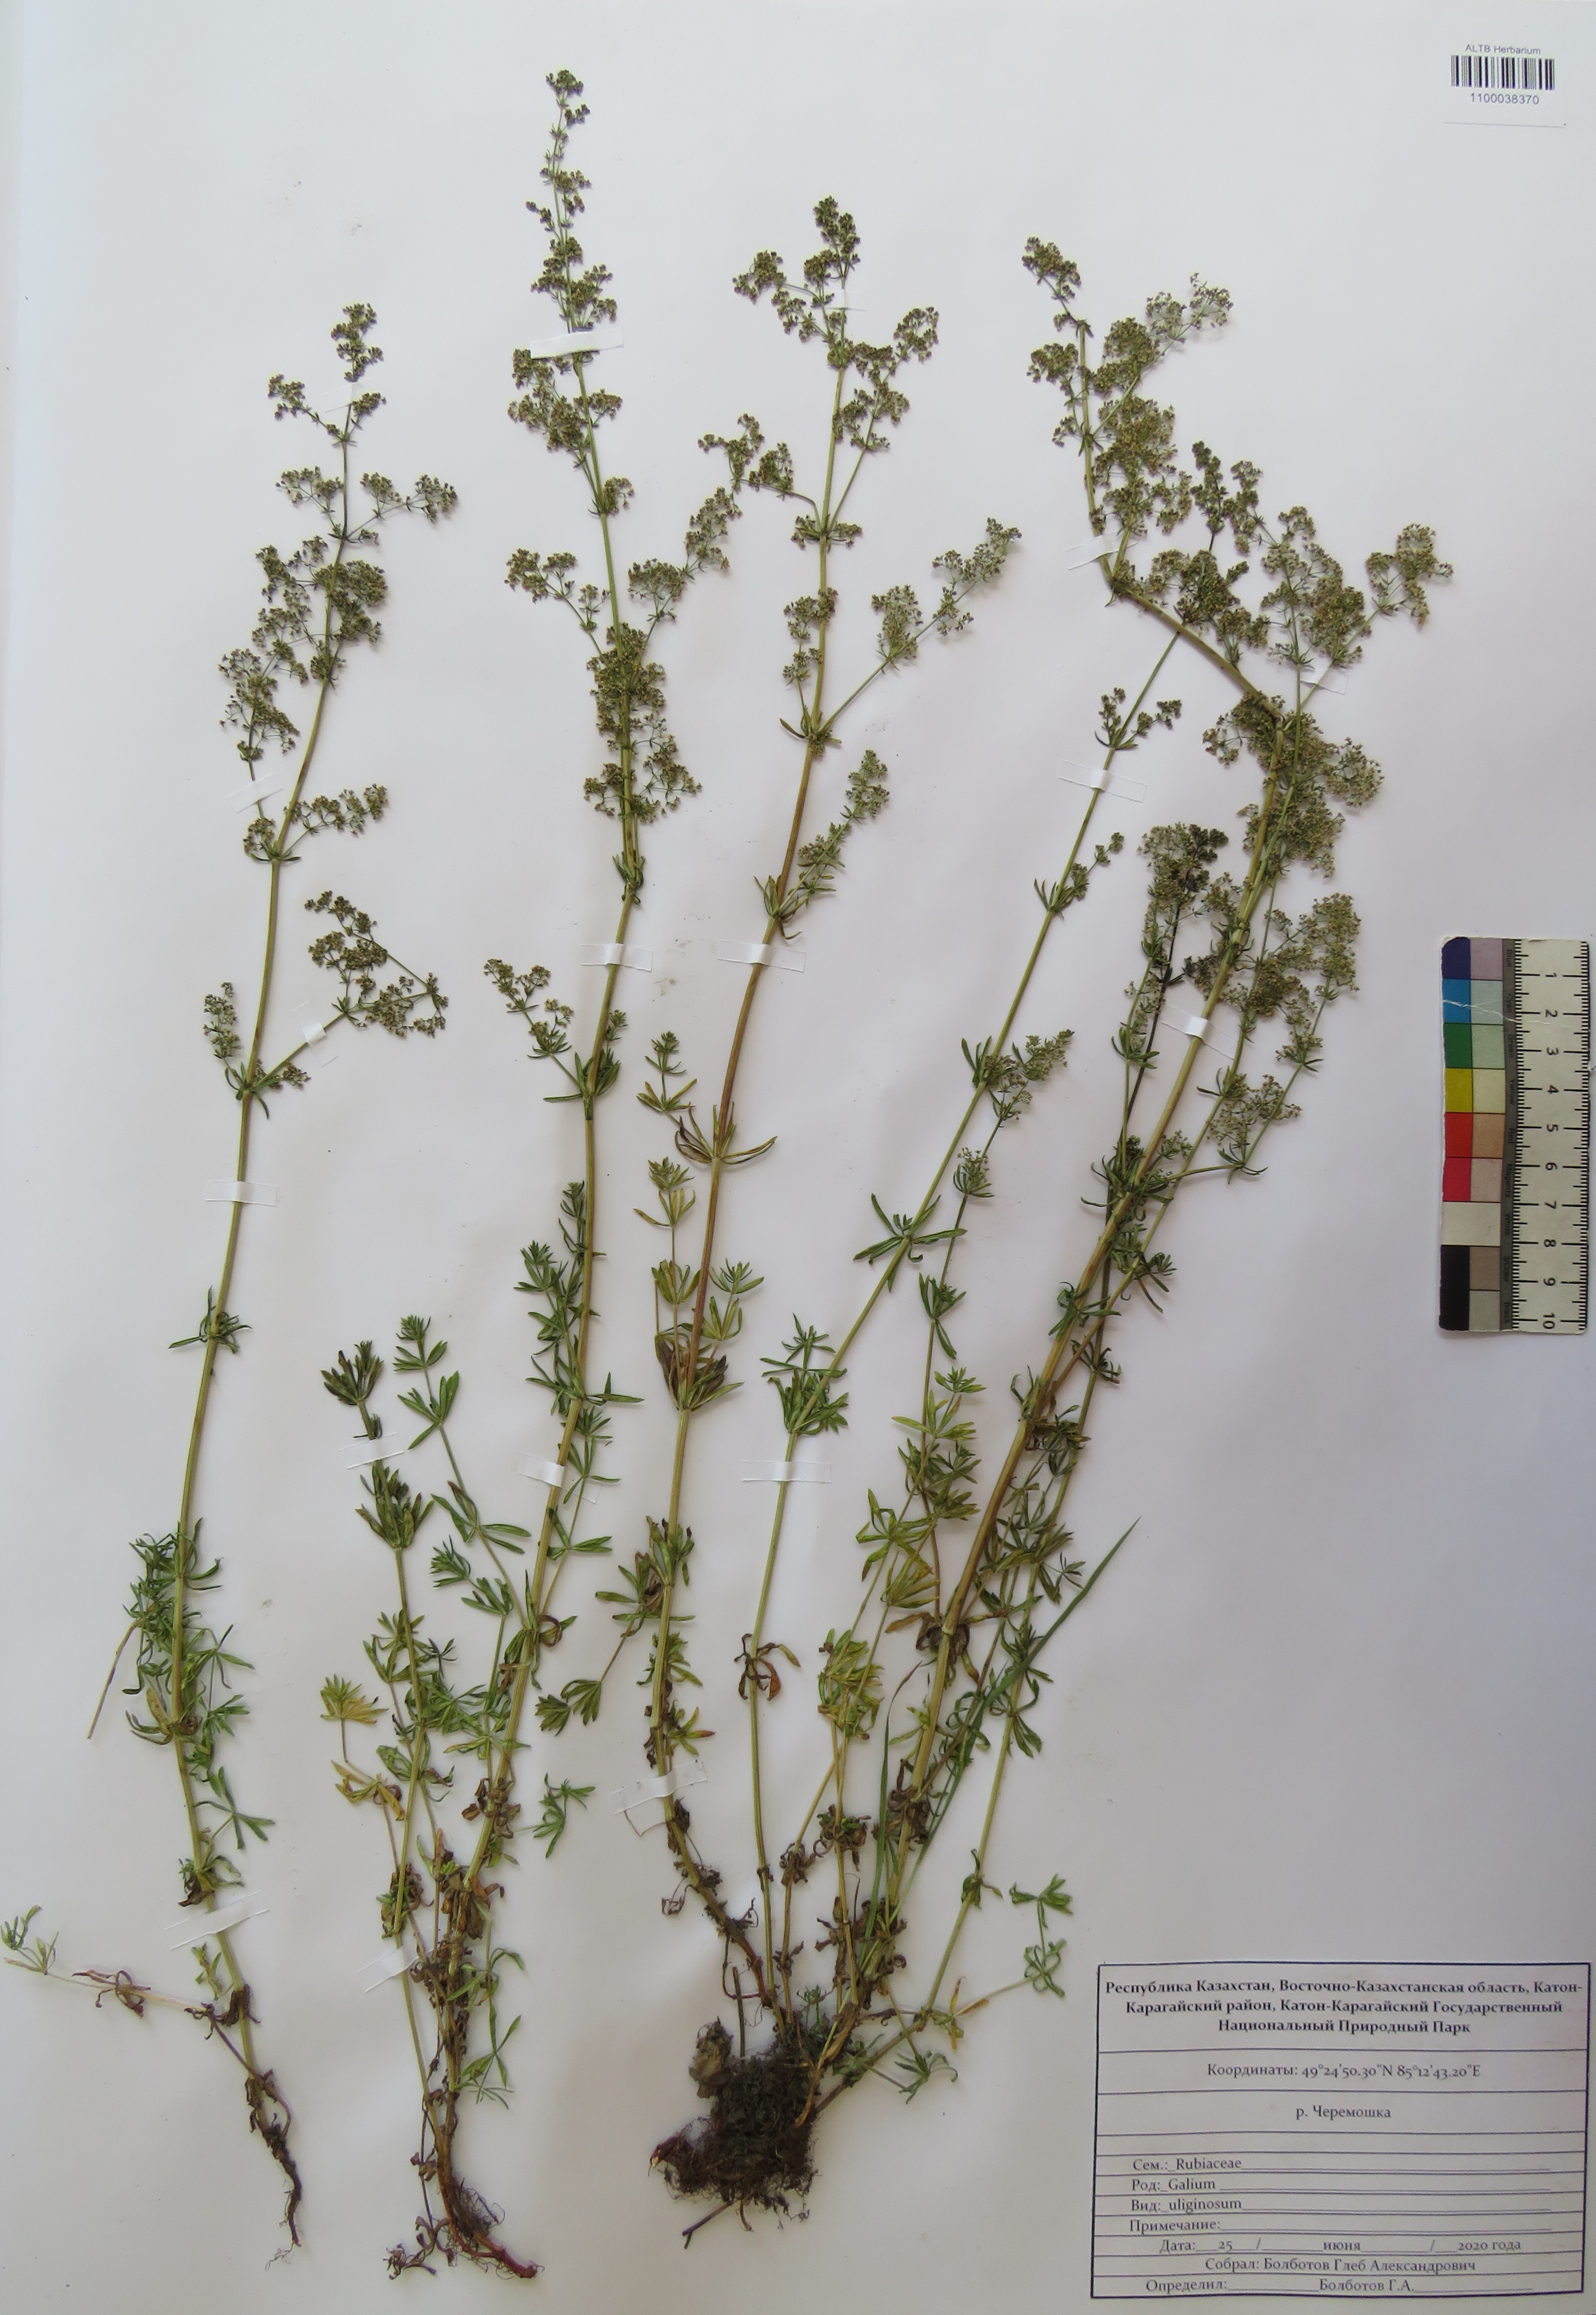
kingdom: Plantae
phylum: Tracheophyta
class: Magnoliopsida
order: Gentianales
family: Rubiaceae
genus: Galium
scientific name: Galium uliginosum
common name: Fen bedstraw
